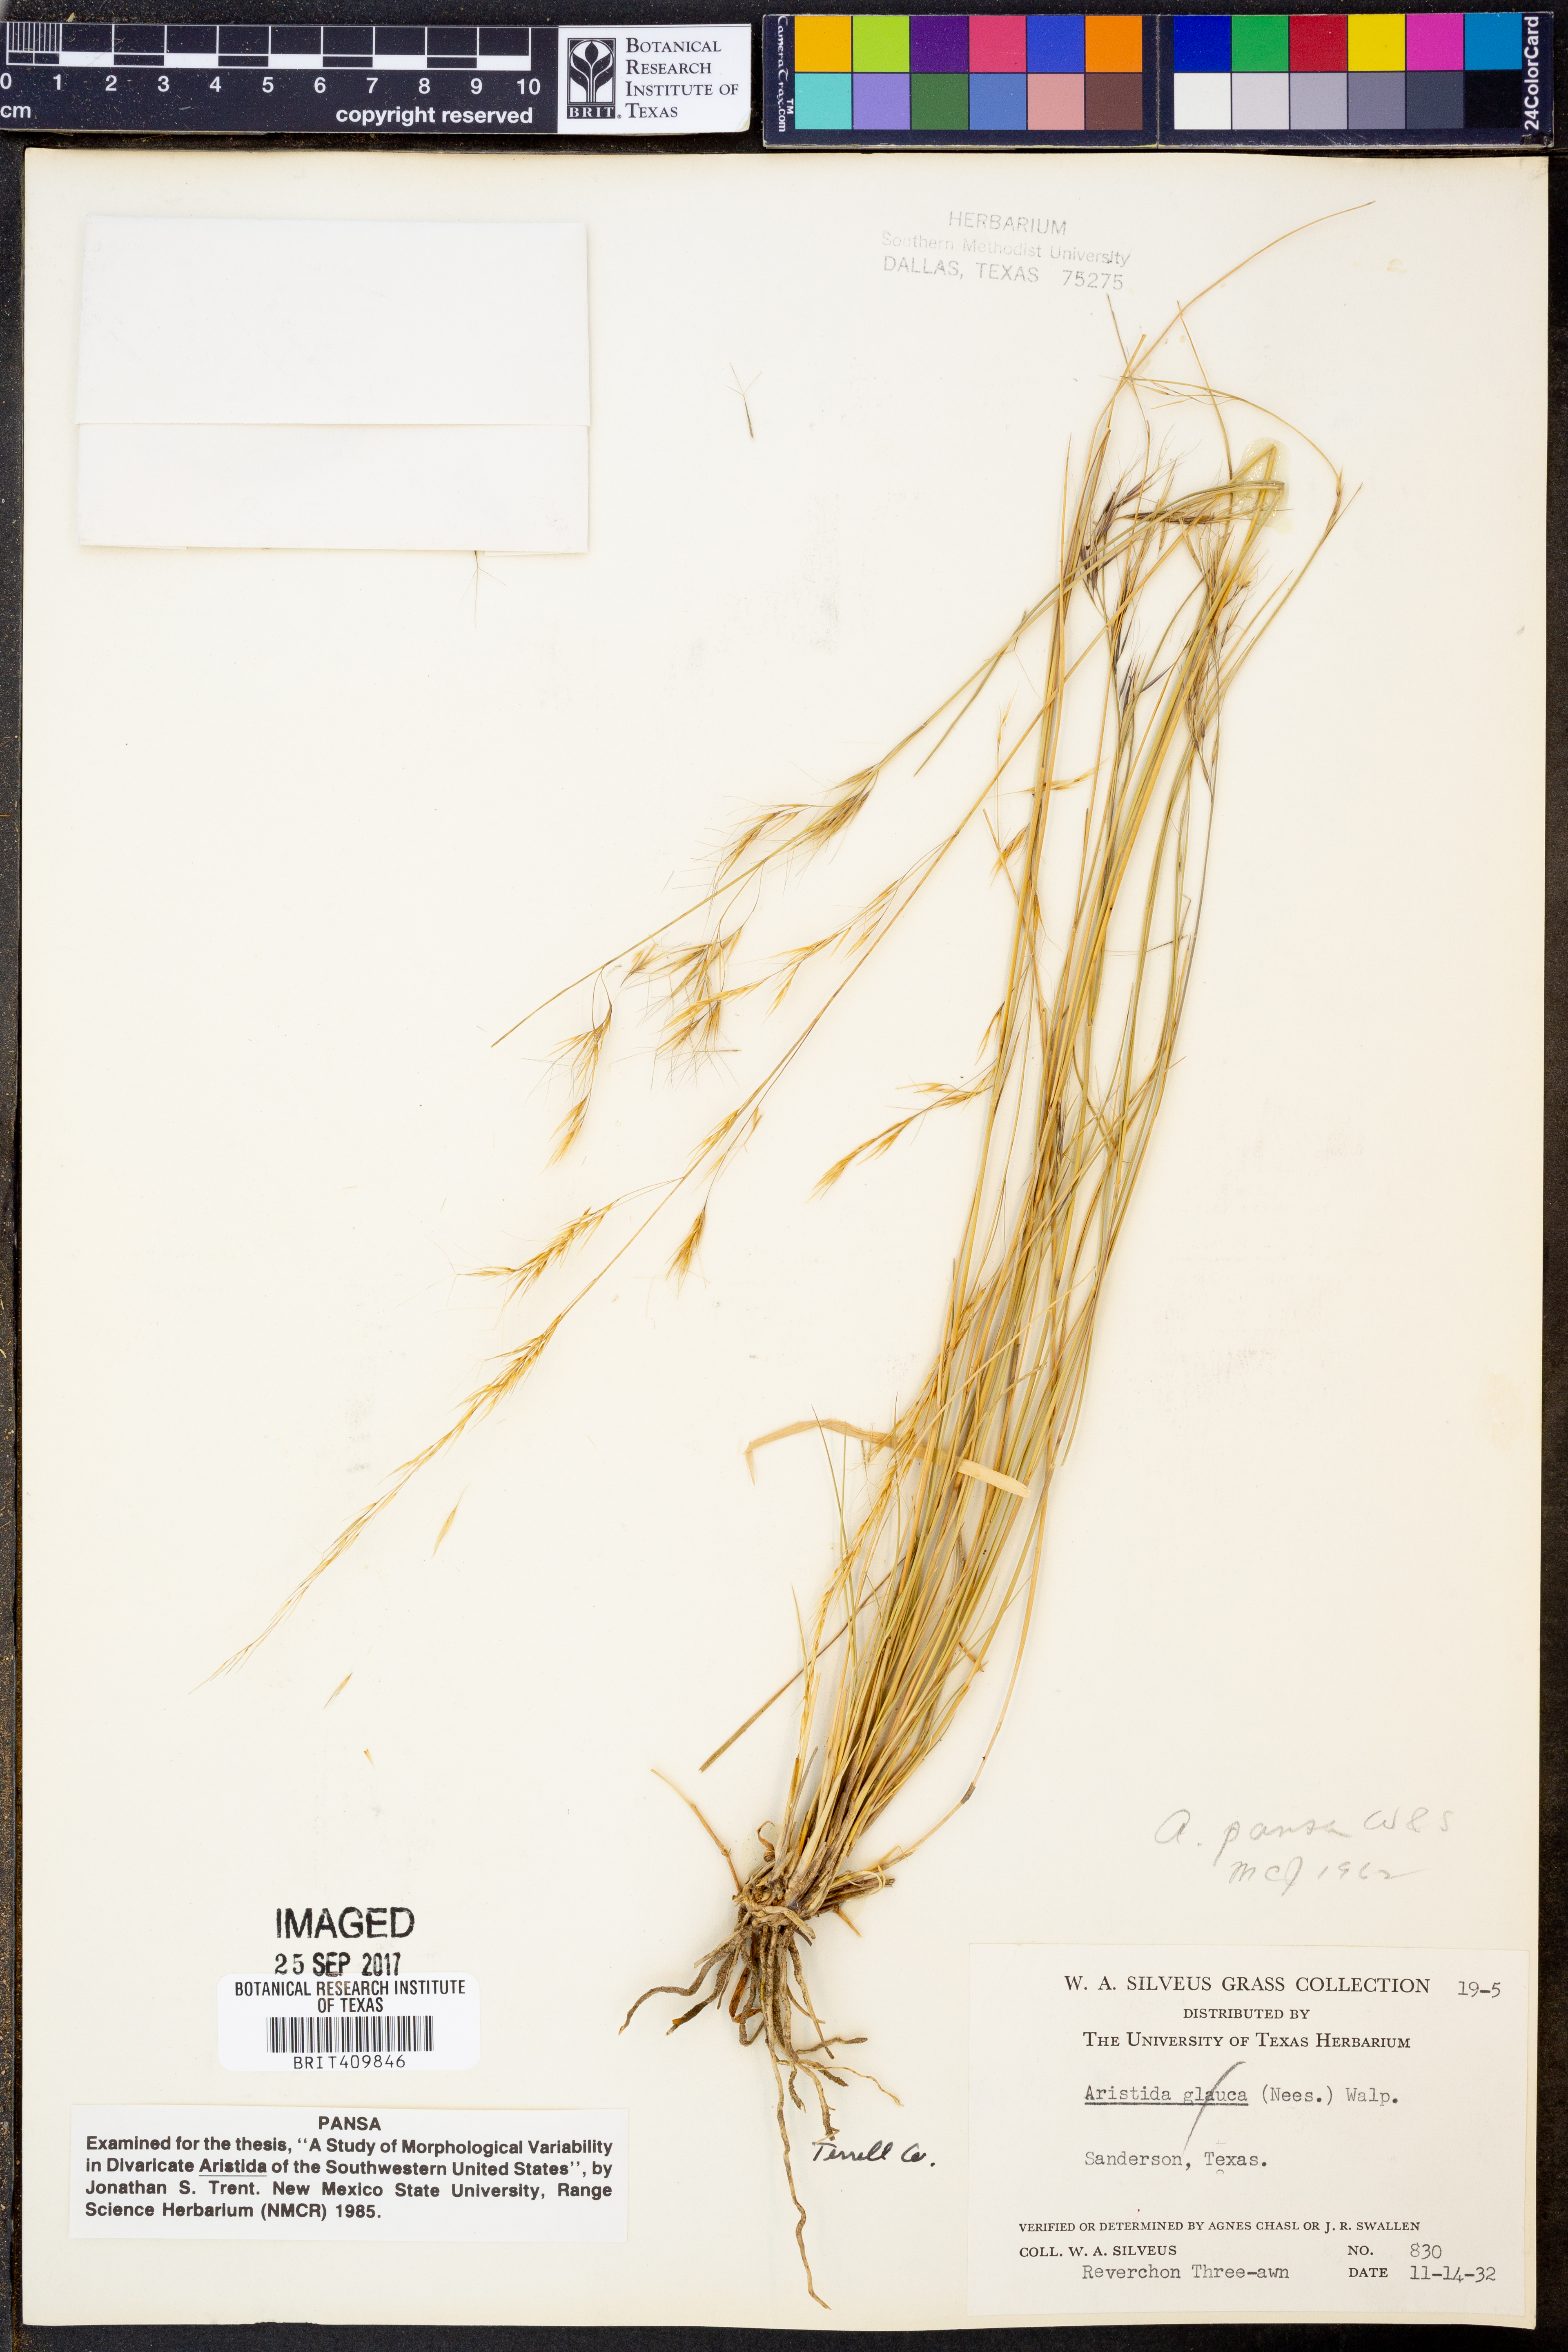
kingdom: Plantae
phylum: Tracheophyta
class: Liliopsida
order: Poales
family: Poaceae
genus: Aristida
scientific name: Aristida pansa
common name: Wooton's three-awn
